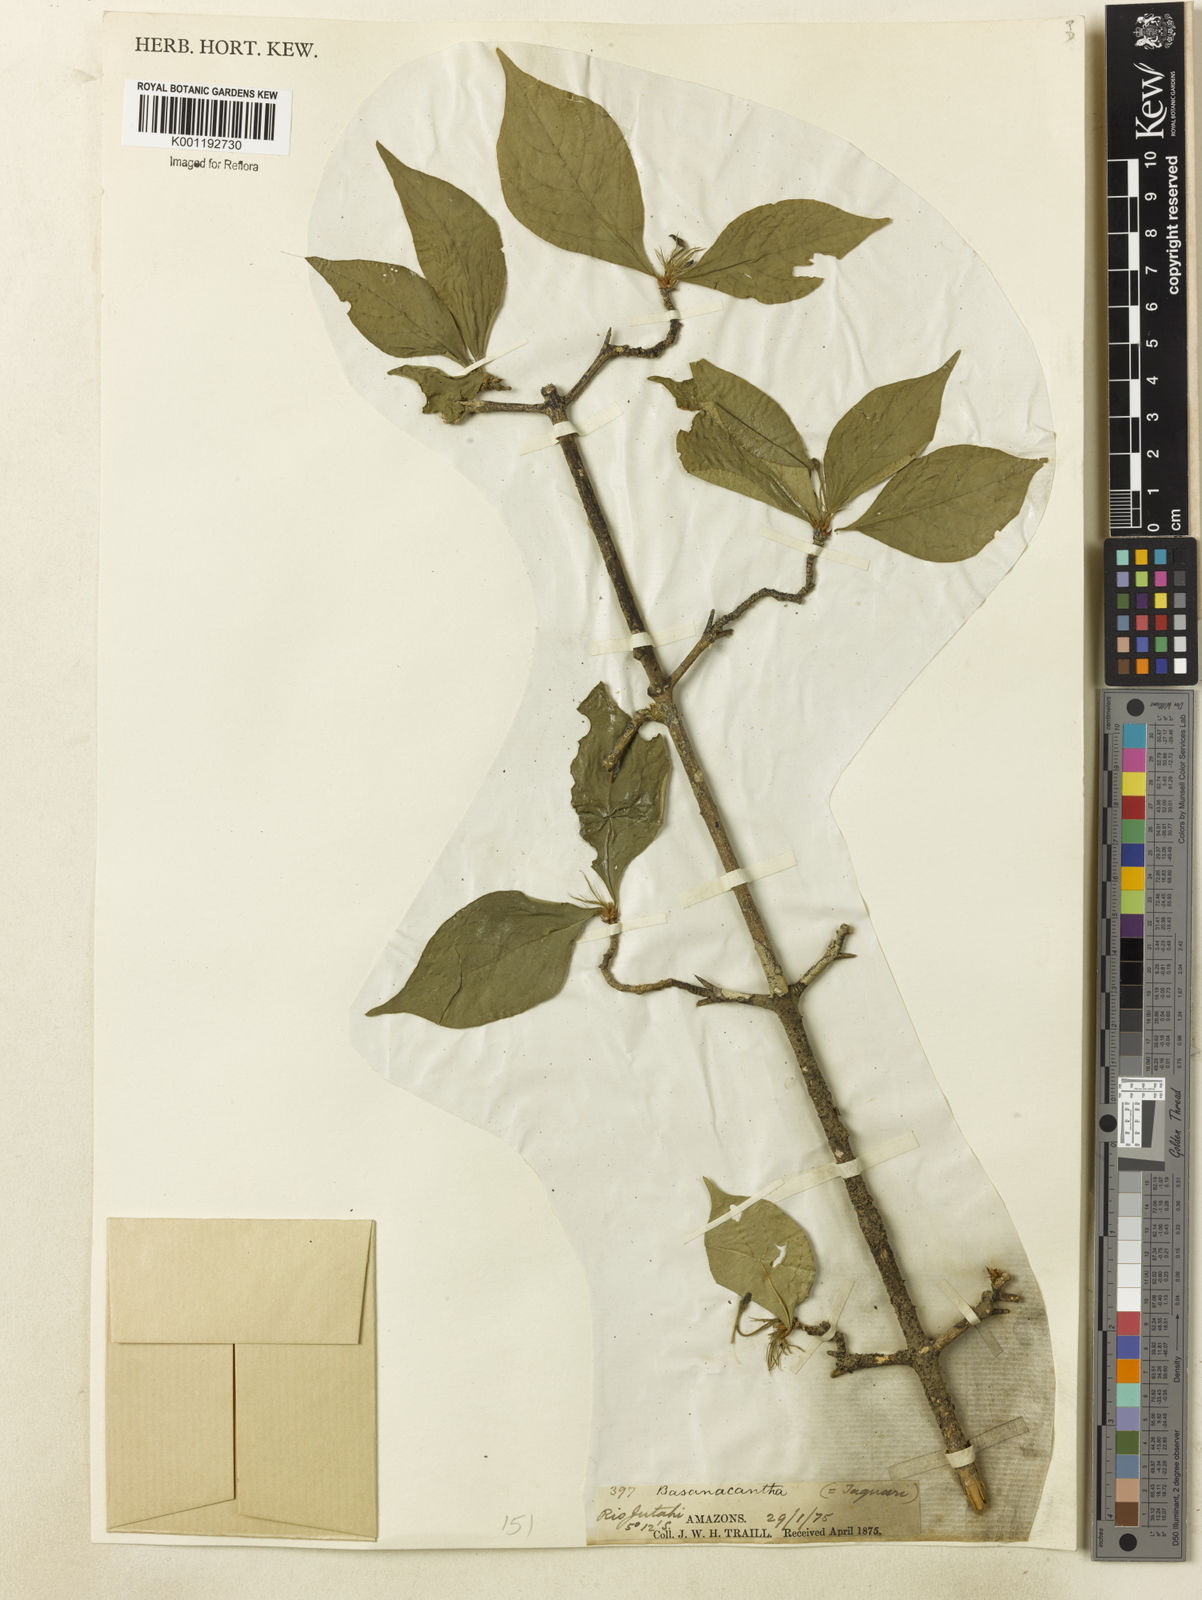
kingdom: Plantae
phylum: Tracheophyta
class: Magnoliopsida
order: Gentianales
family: Rubiaceae
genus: Randia
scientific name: Randia
